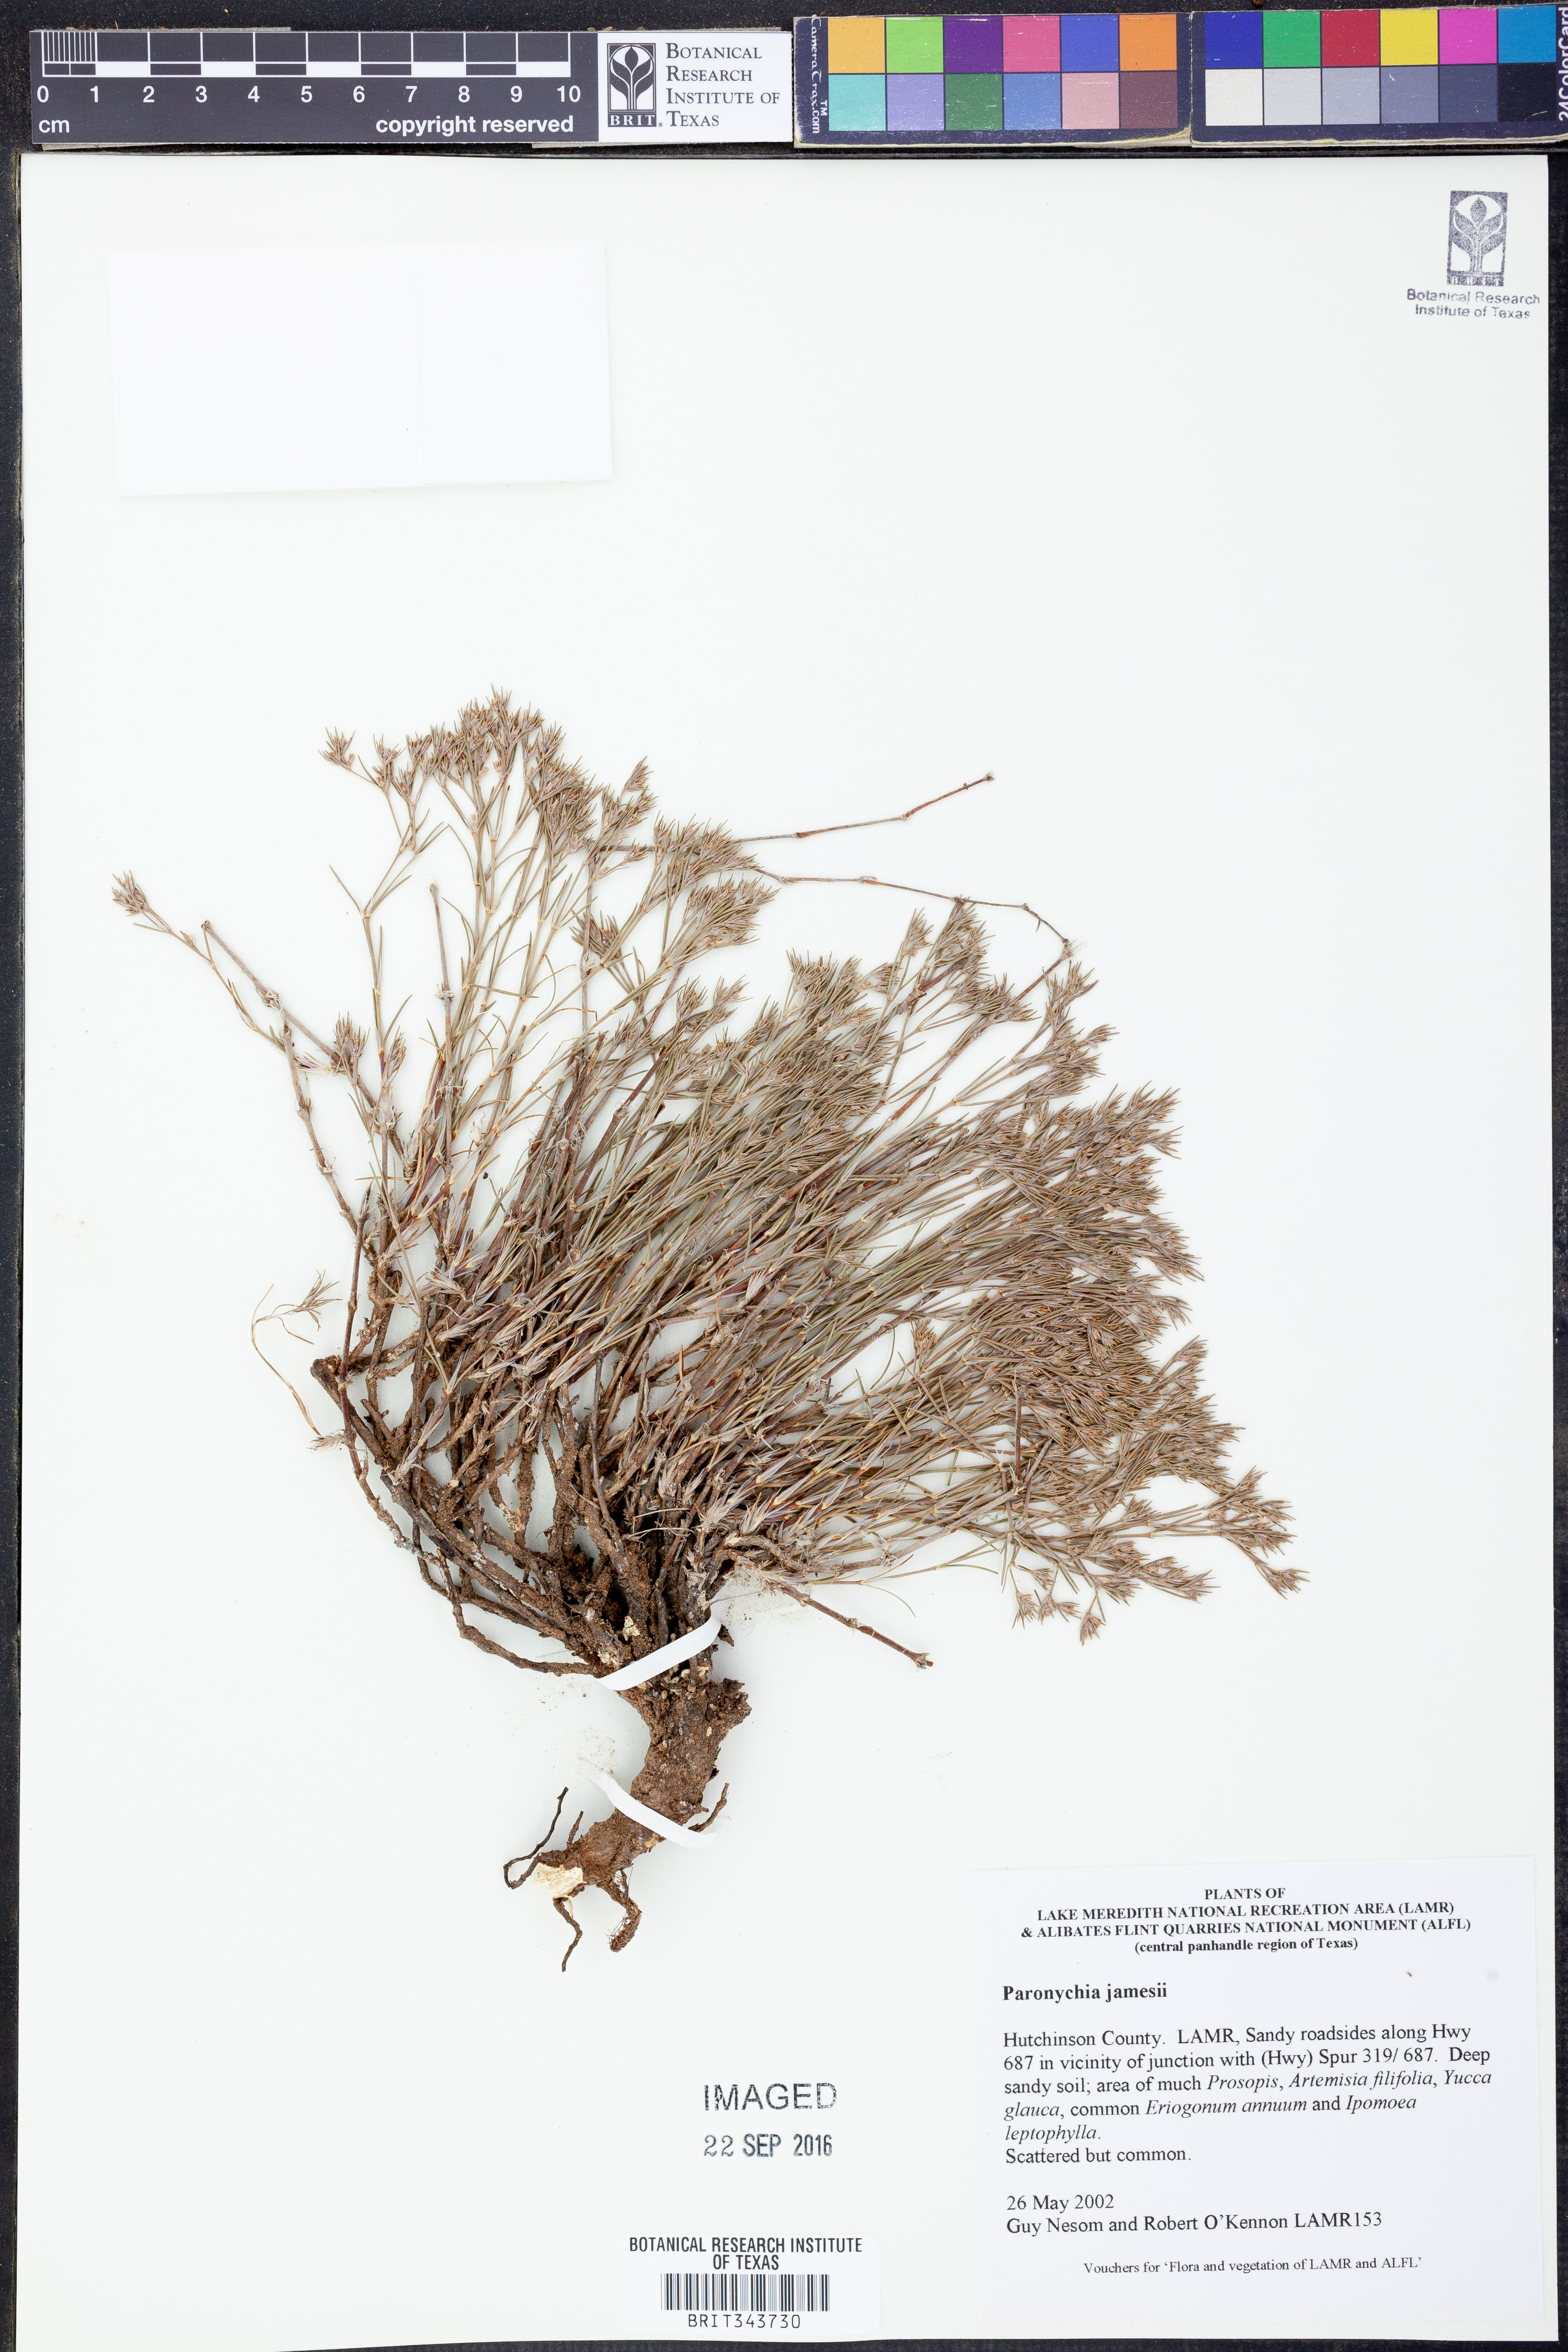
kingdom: Plantae
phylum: Tracheophyta
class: Magnoliopsida
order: Caryophyllales
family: Caryophyllaceae
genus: Paronychia
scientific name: Paronychia jamesii
